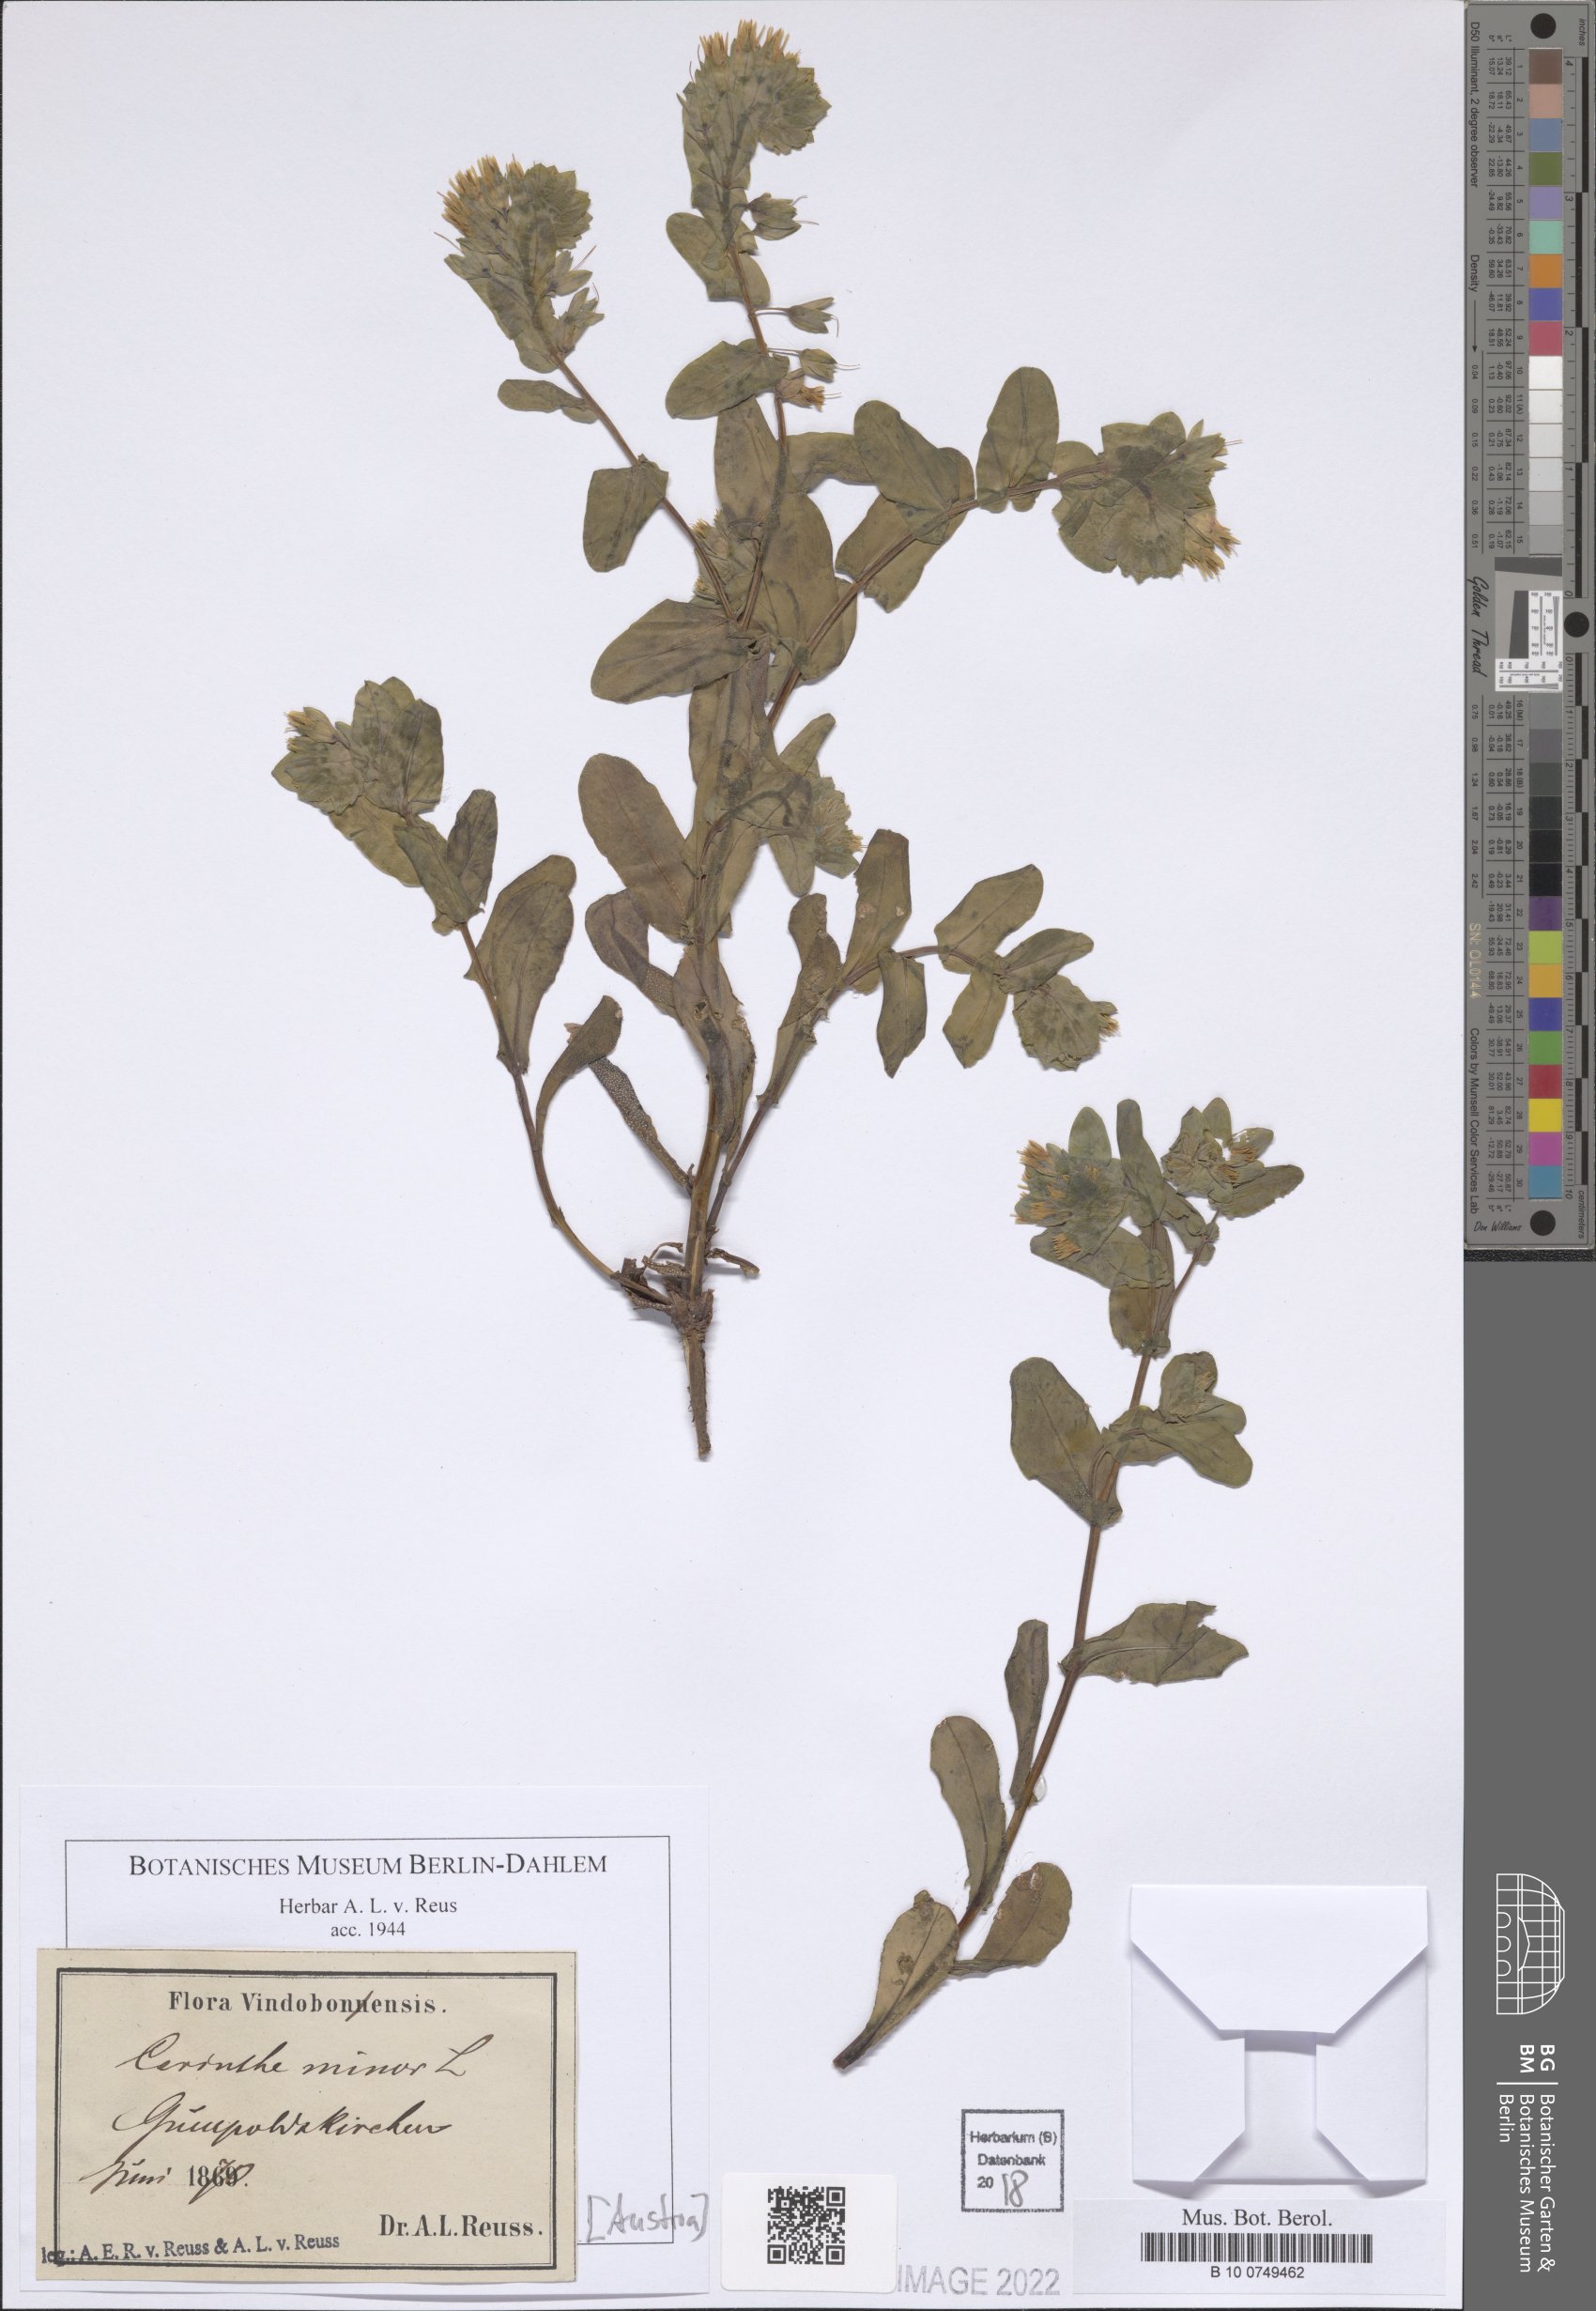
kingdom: Plantae
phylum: Tracheophyta
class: Magnoliopsida
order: Boraginales
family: Boraginaceae
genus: Cerinthe
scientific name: Cerinthe minor
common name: Lesser honeywort
